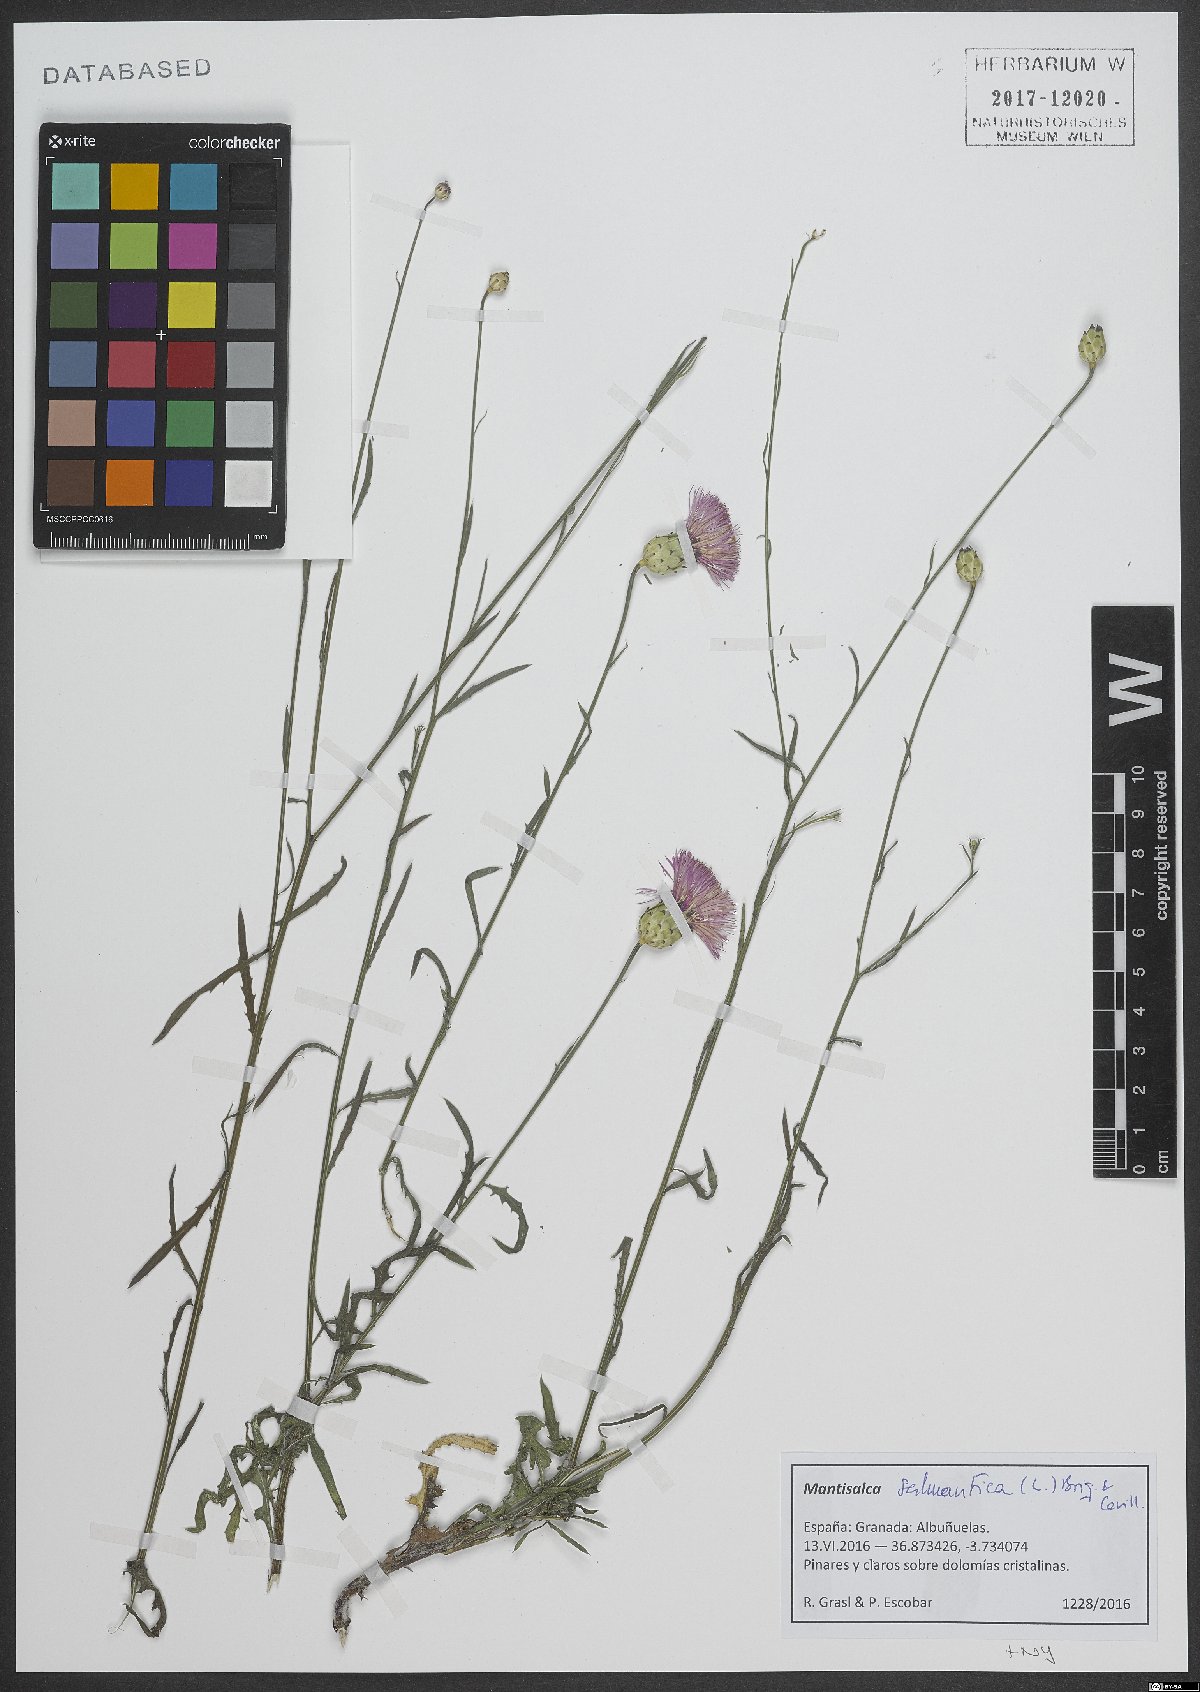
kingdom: Plantae
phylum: Tracheophyta
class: Magnoliopsida
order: Asterales
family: Asteraceae
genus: Mantisalca
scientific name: Mantisalca salmantica
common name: Dagger flower
